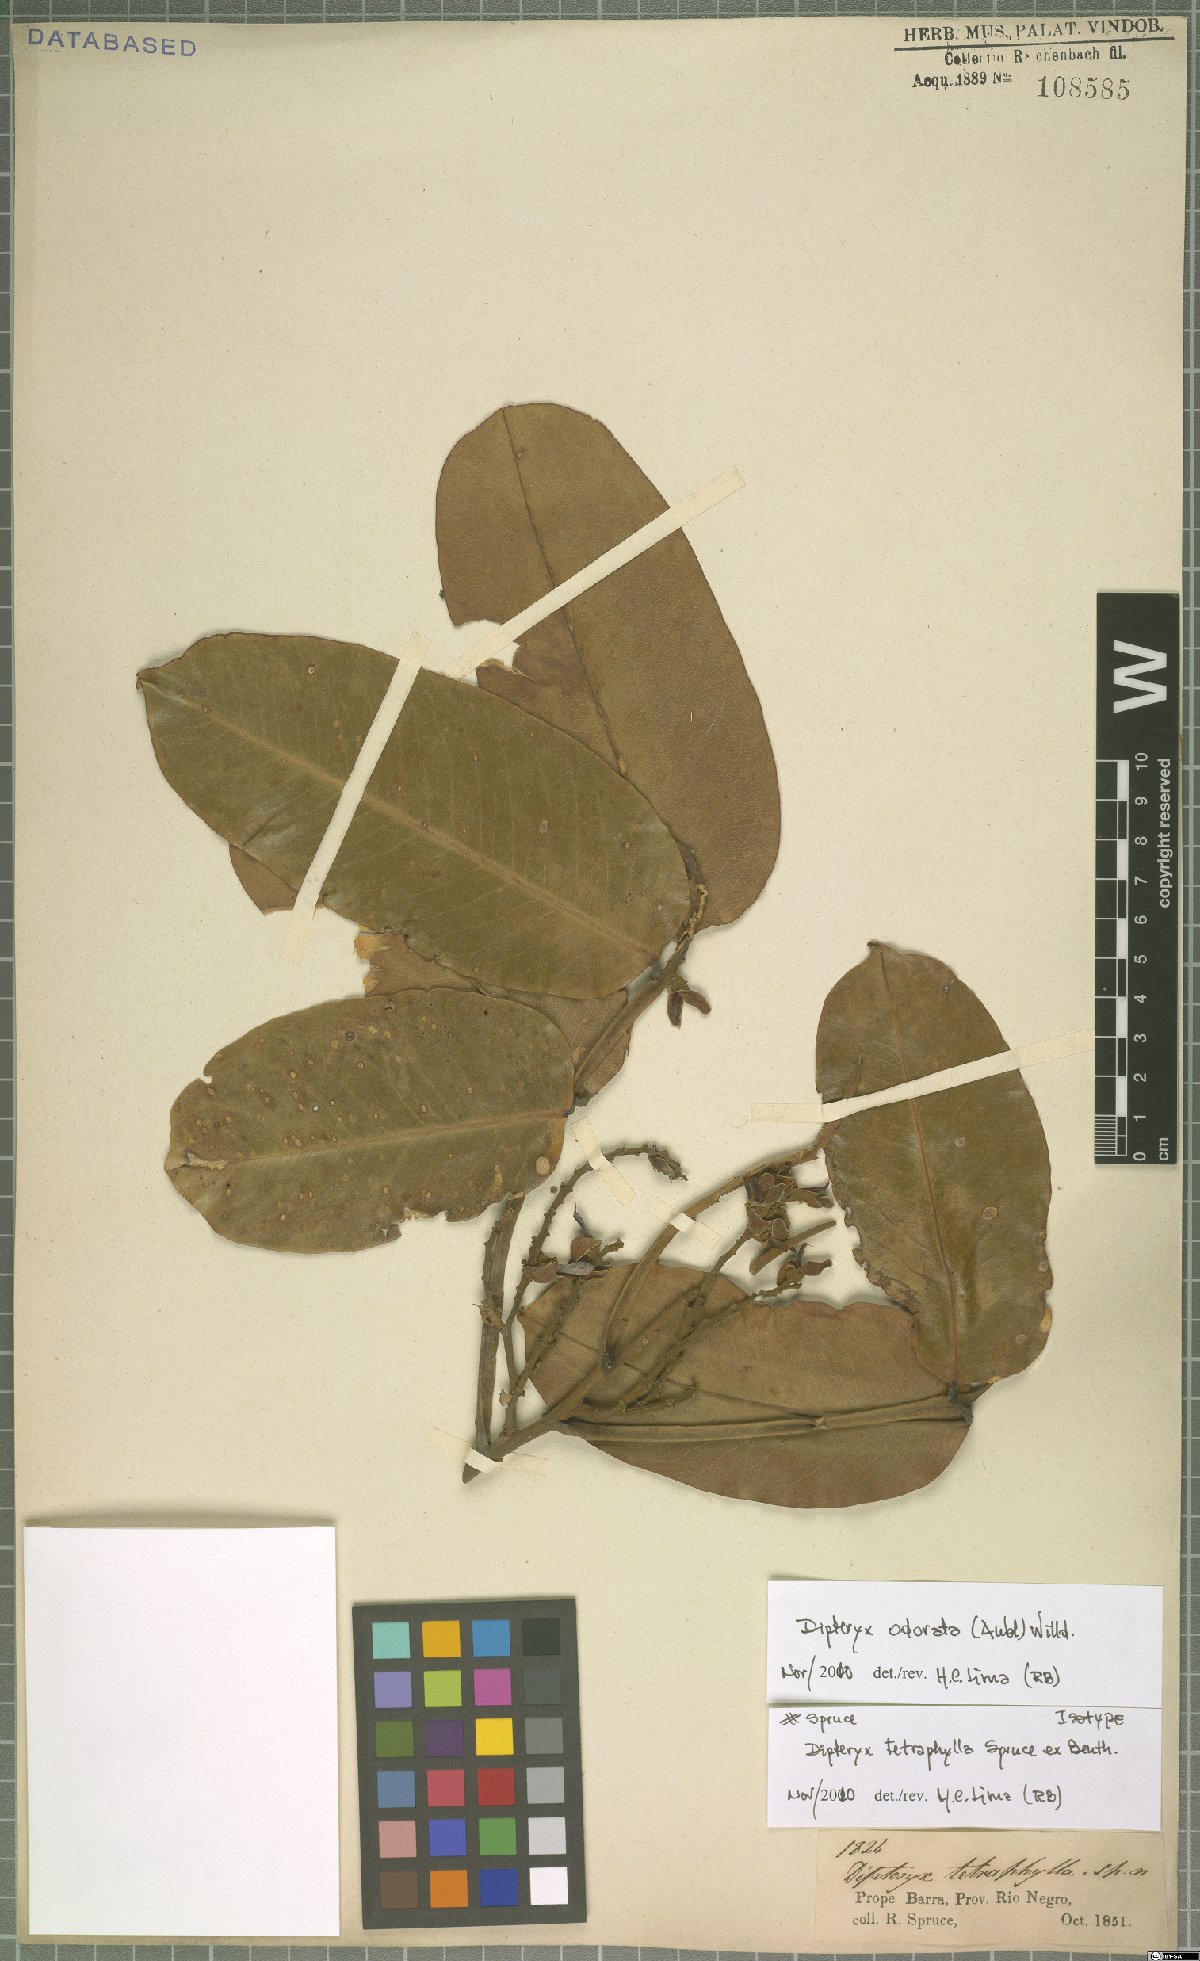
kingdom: Plantae
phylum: Tracheophyta
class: Magnoliopsida
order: Fabales
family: Fabaceae
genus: Dipteryx
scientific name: Dipteryx odorata
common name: Tonka
